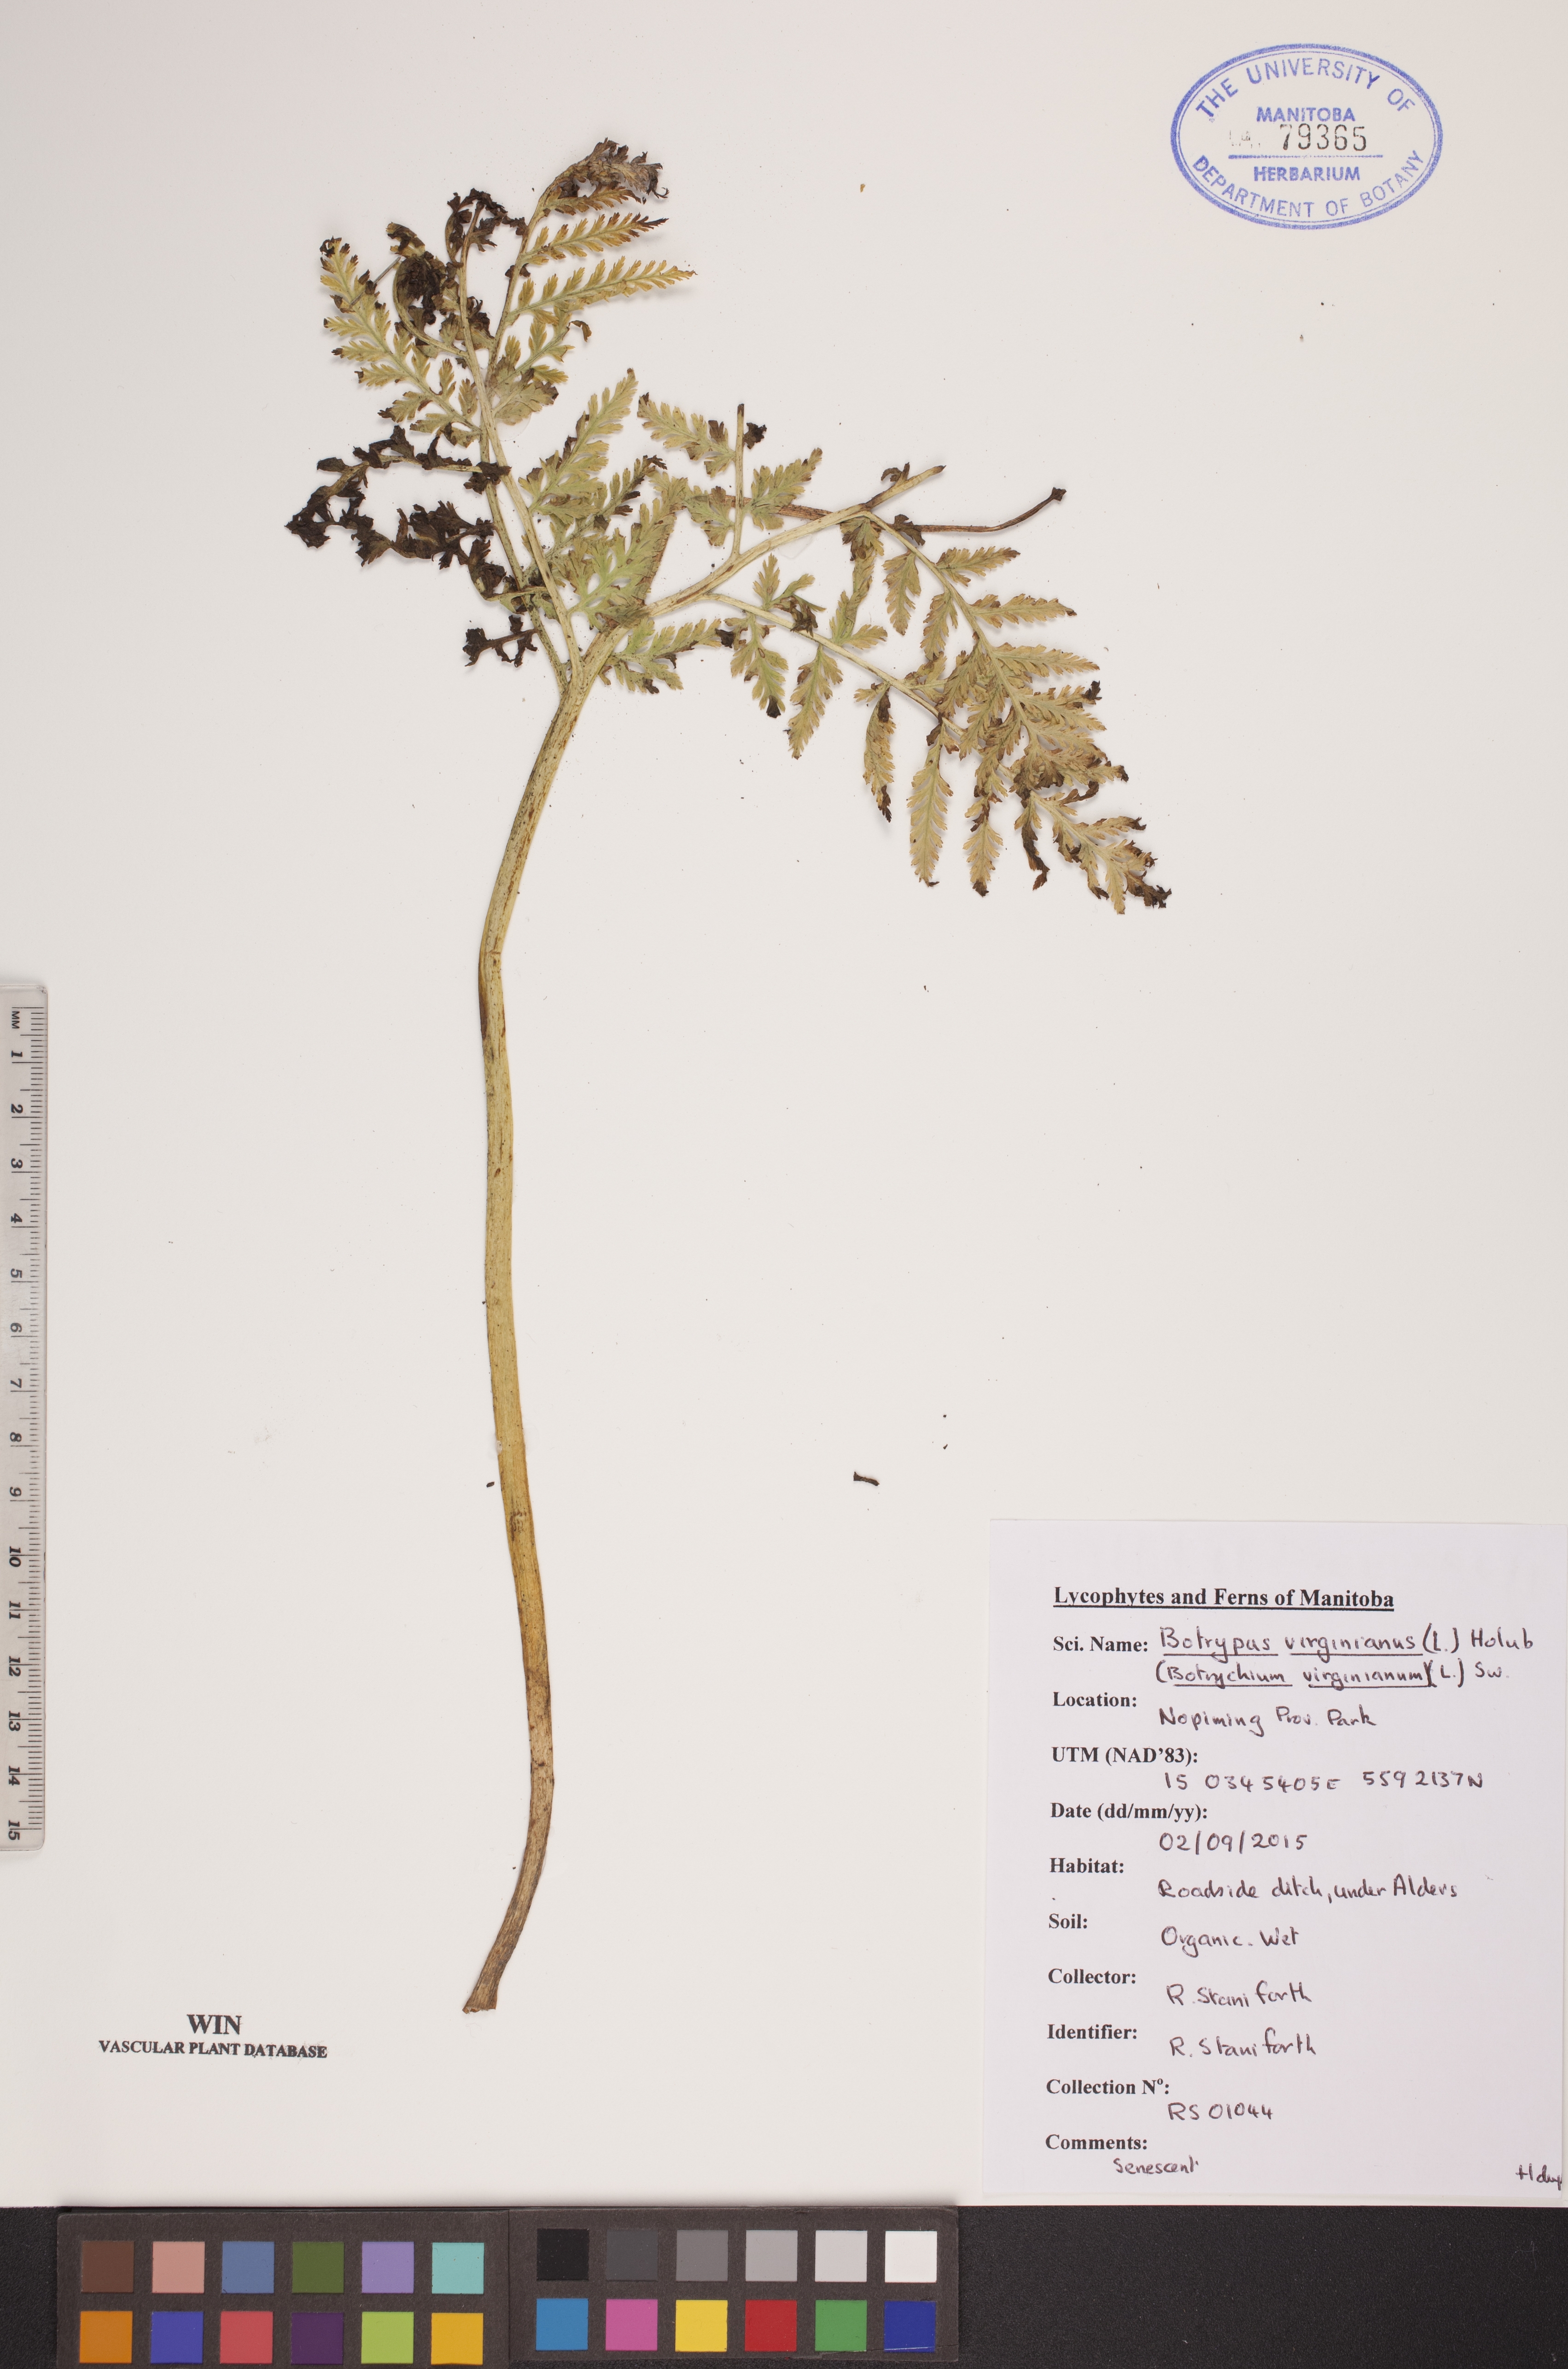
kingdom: Plantae
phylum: Tracheophyta
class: Polypodiopsida
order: Ophioglossales
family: Ophioglossaceae
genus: Botrypus
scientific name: Botrypus virginianus
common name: Common grapefern
